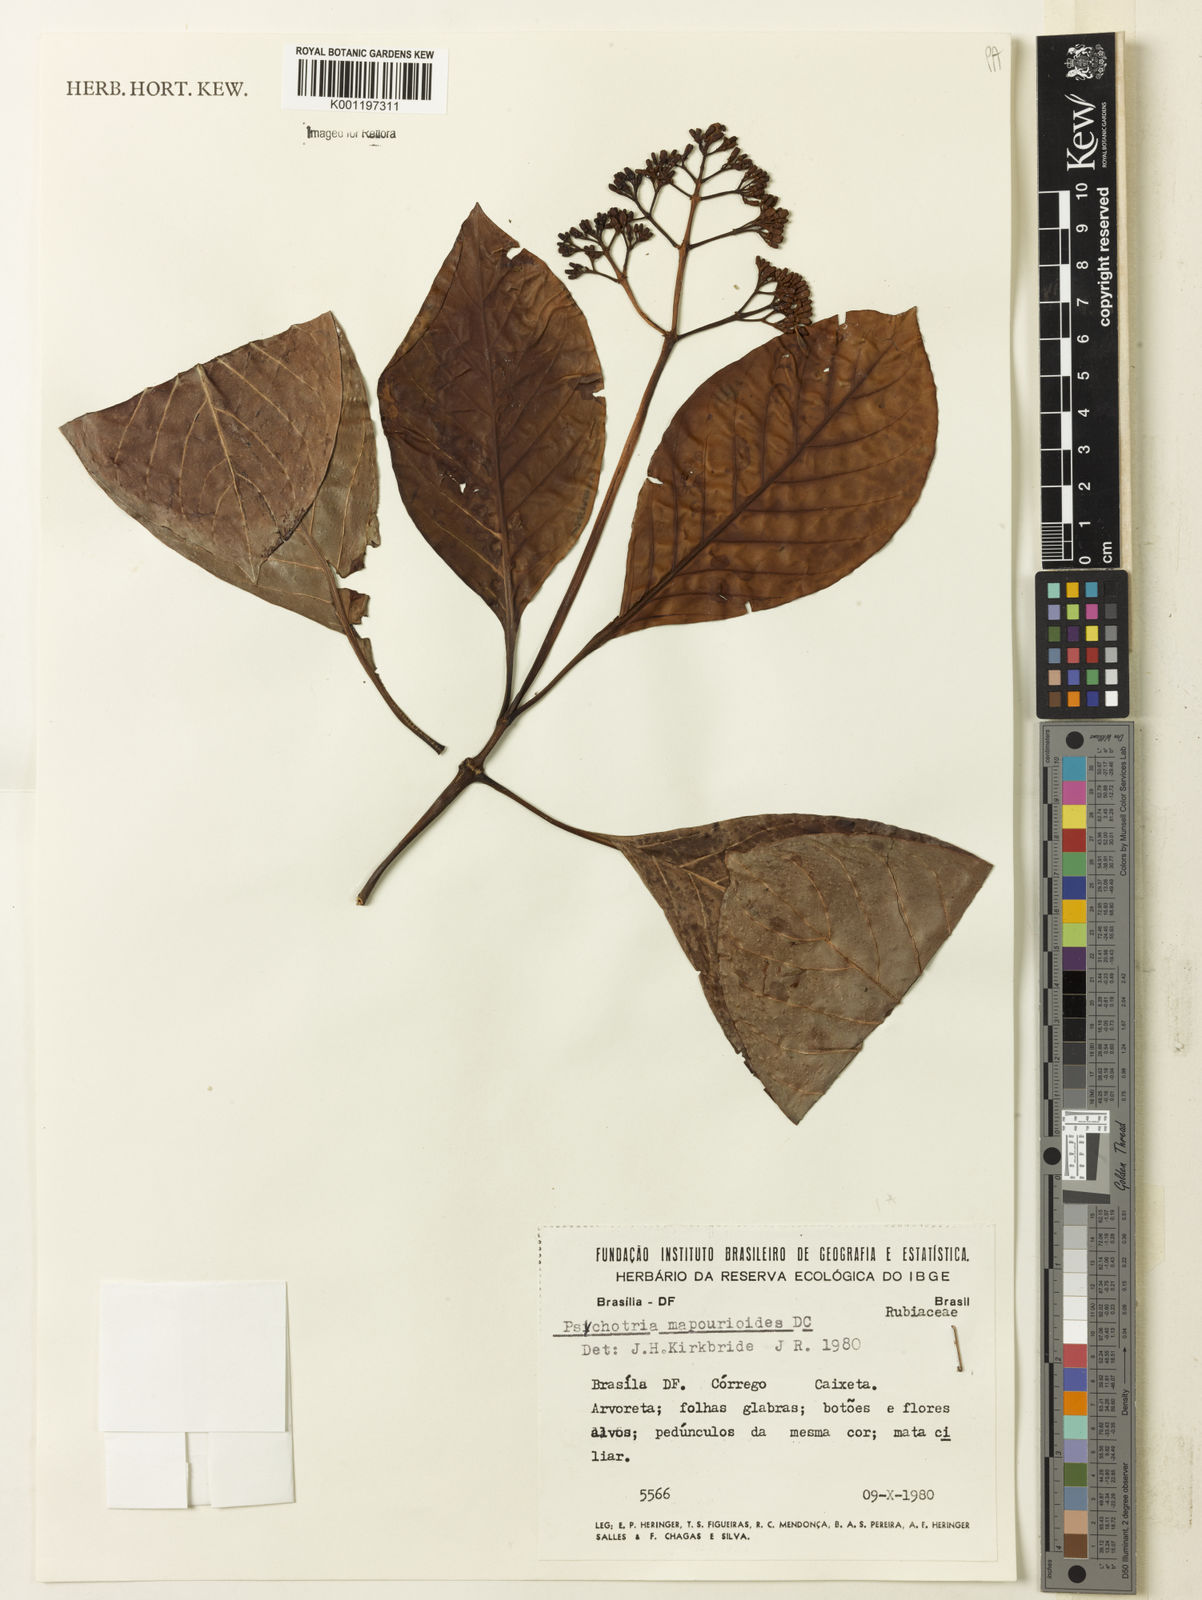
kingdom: Plantae
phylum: Tracheophyta
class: Magnoliopsida
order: Gentianales
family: Rubiaceae
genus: Psychotria
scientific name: Psychotria pedunculosa
